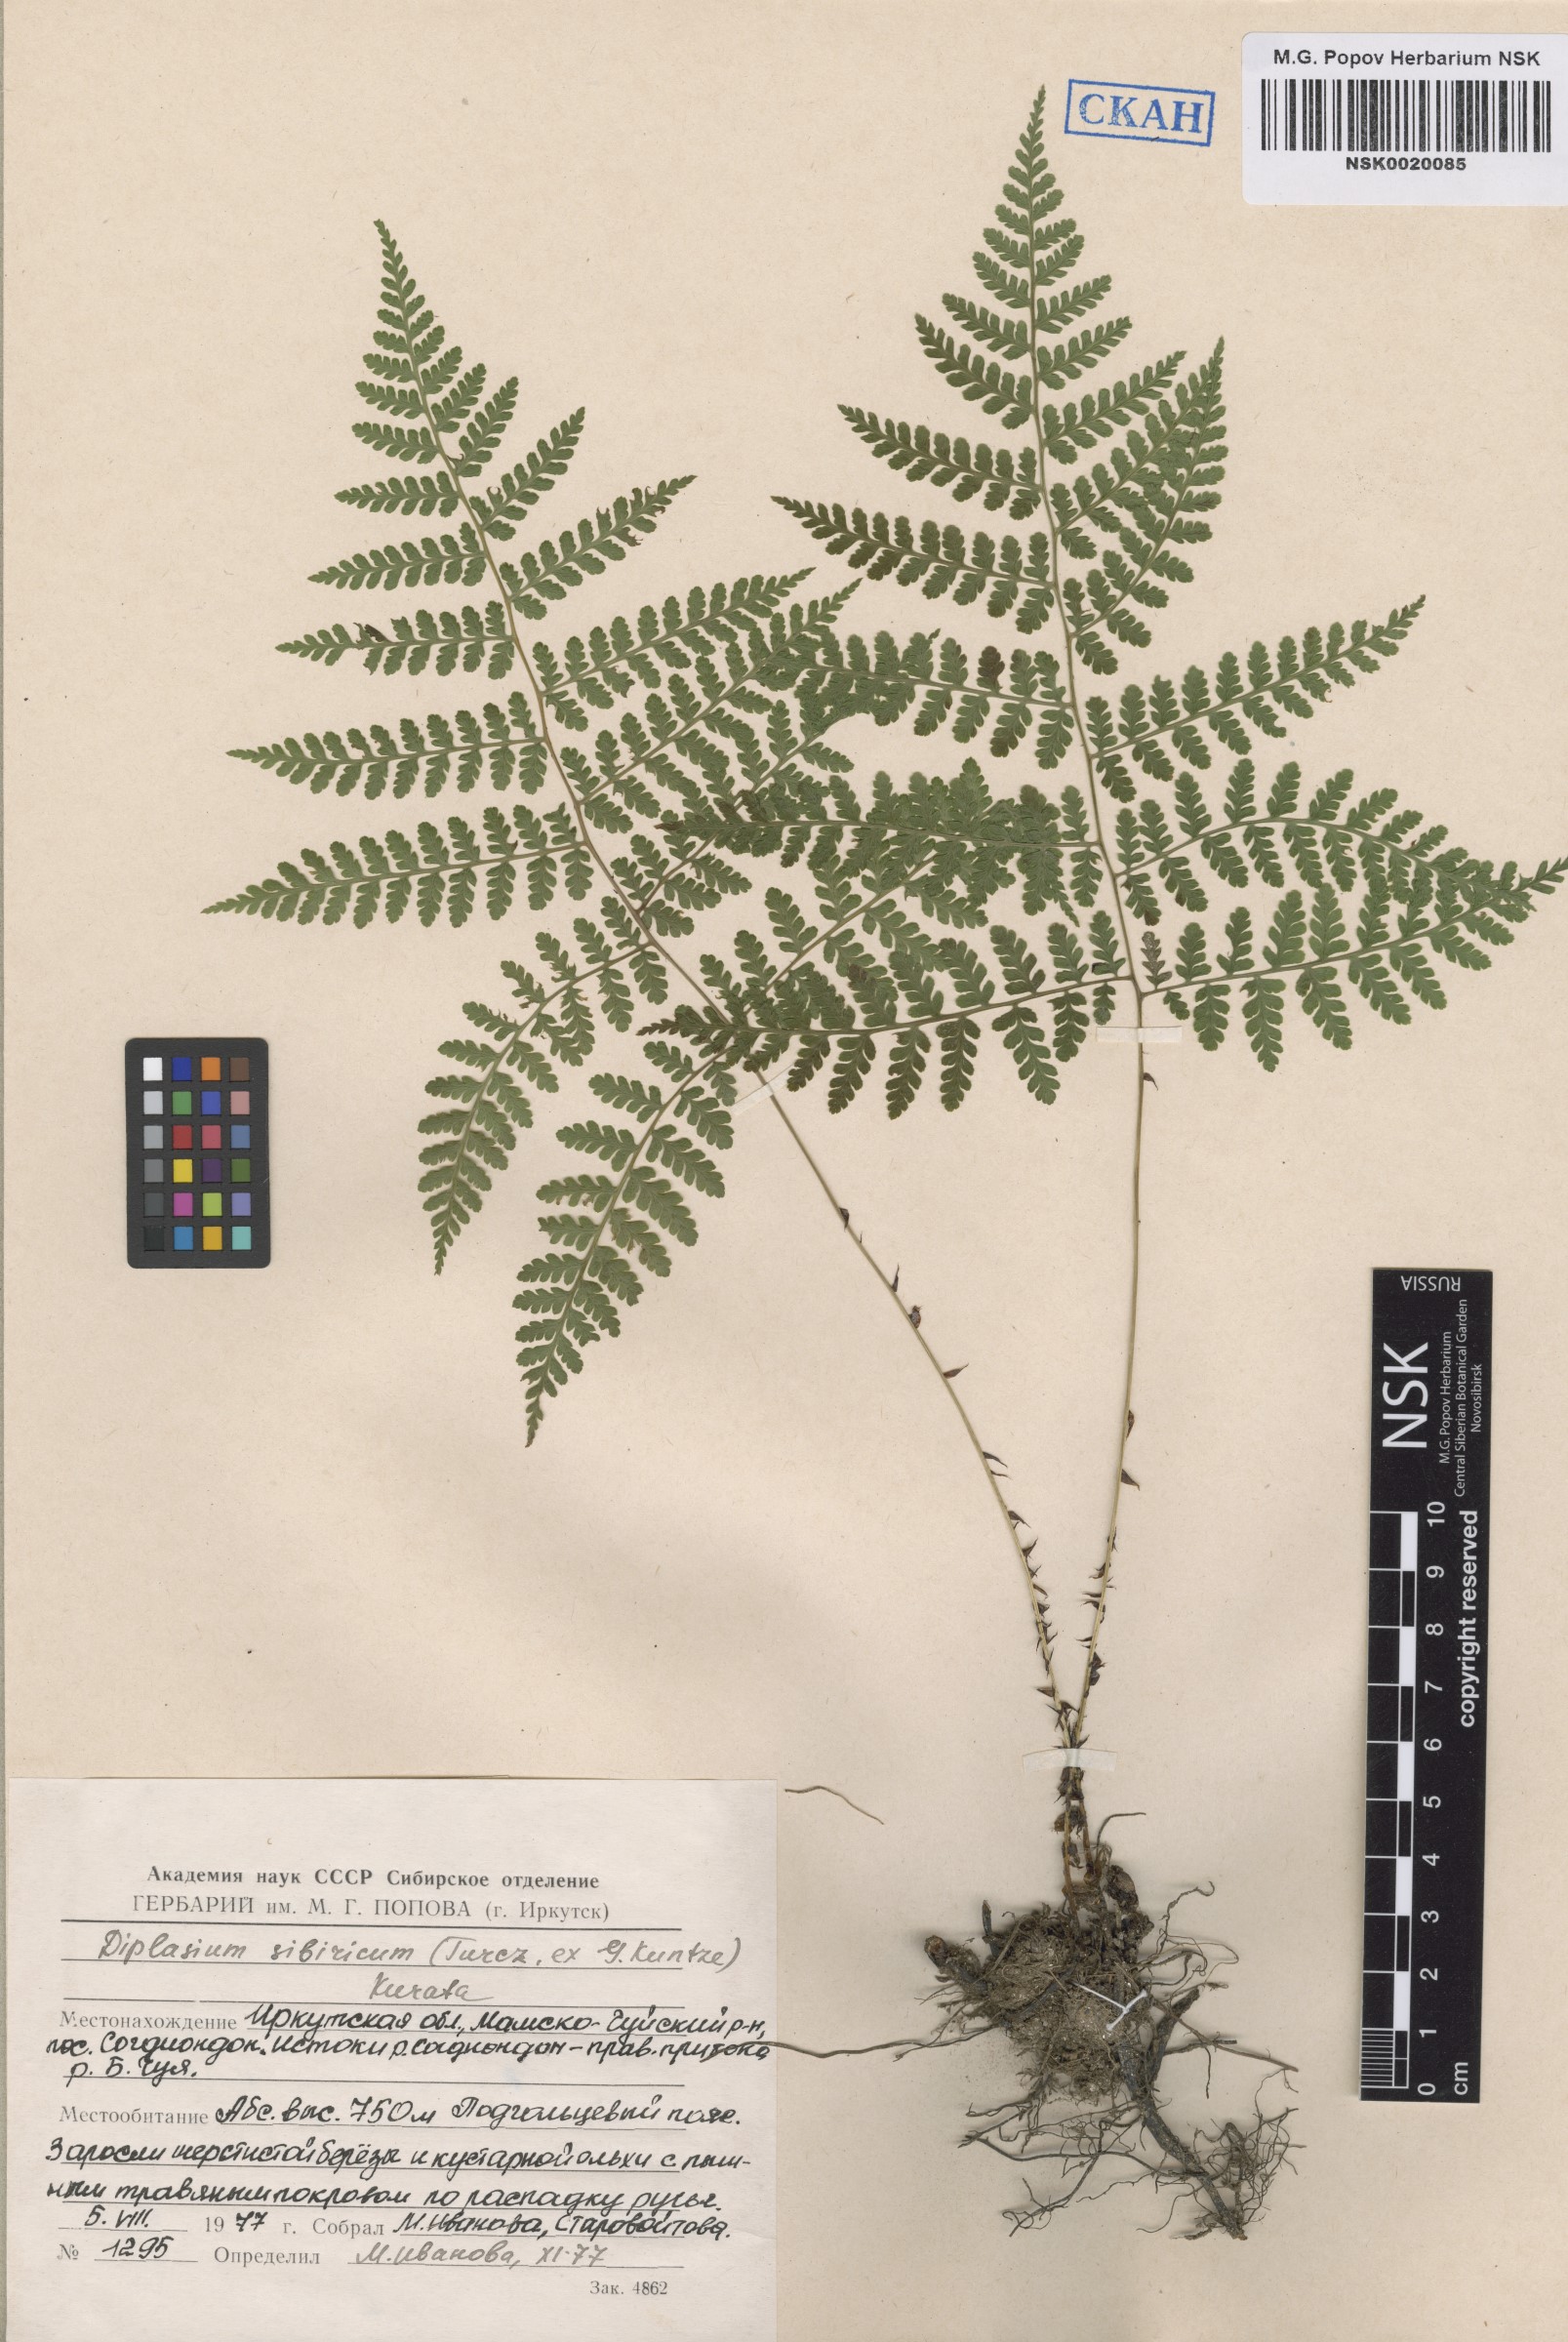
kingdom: Plantae
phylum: Tracheophyta
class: Polypodiopsida
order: Polypodiales
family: Athyriaceae
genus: Diplazium
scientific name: Diplazium sibiricum
